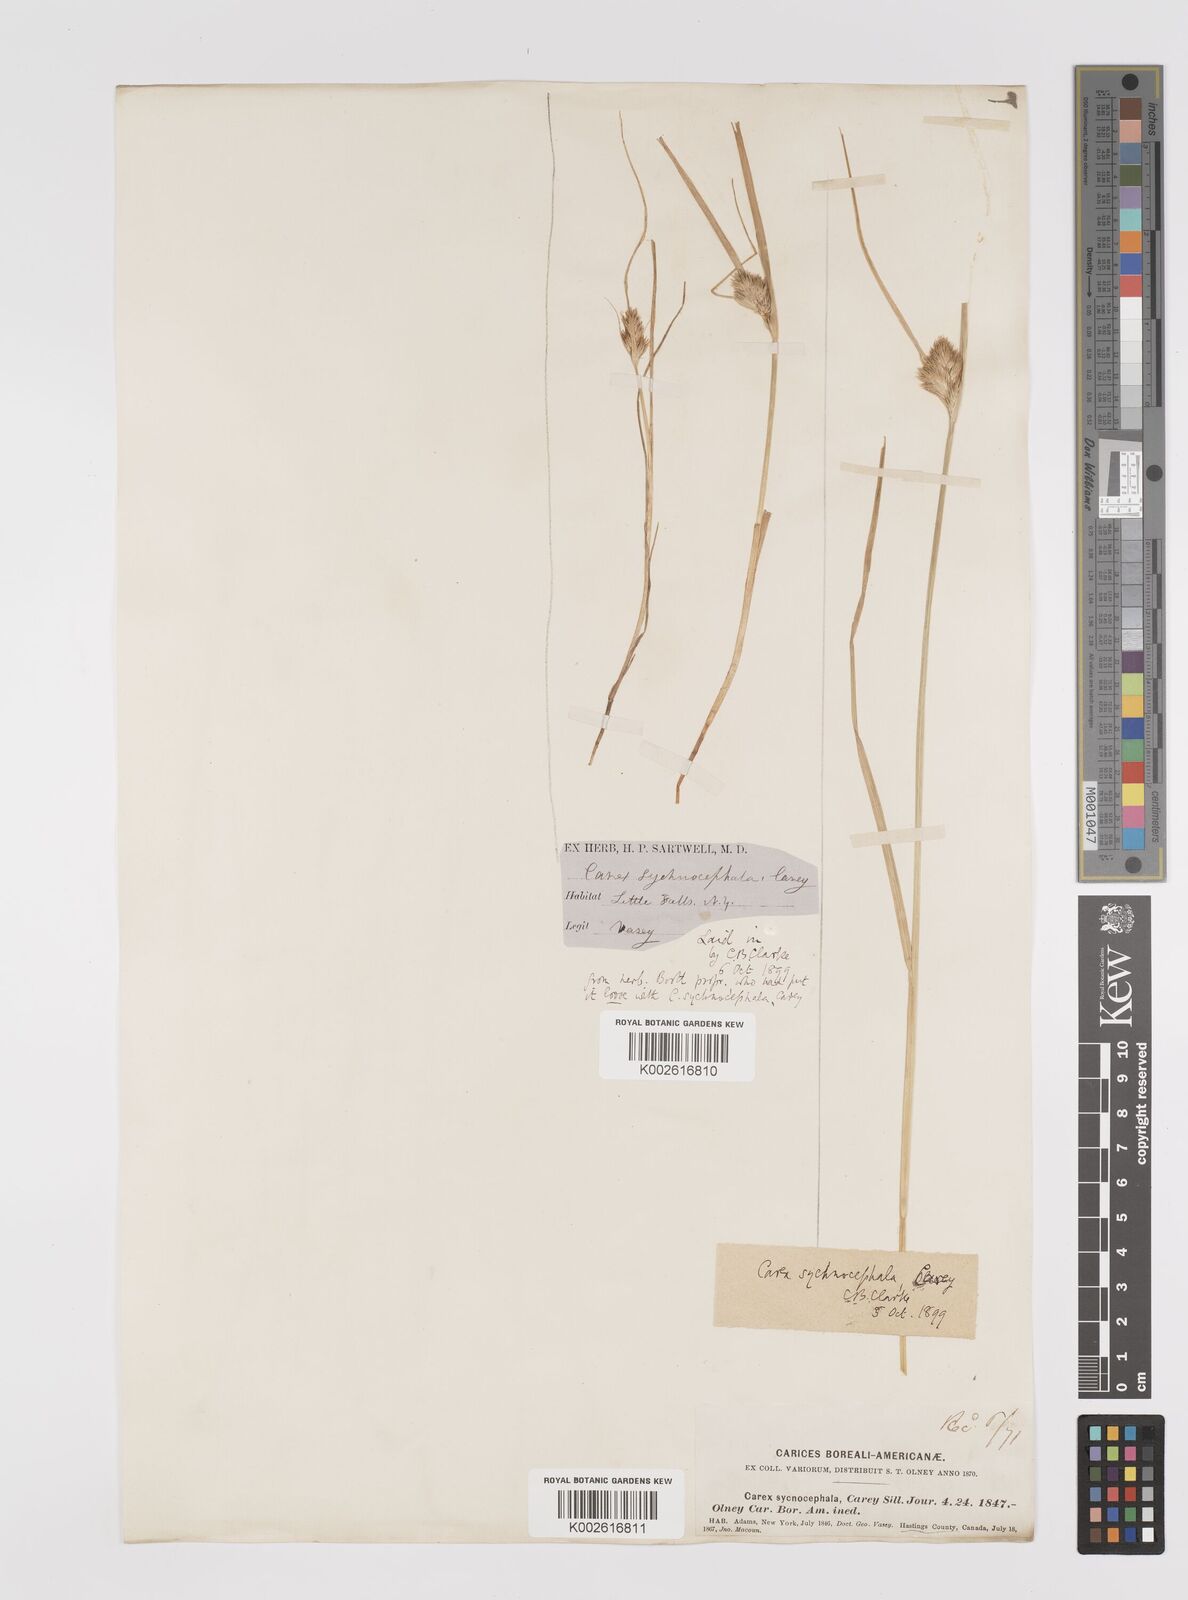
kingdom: Plantae
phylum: Tracheophyta
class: Liliopsida
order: Poales
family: Cyperaceae
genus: Carex
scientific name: Carex sychnocephala
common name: Dense long-beaked sedge
